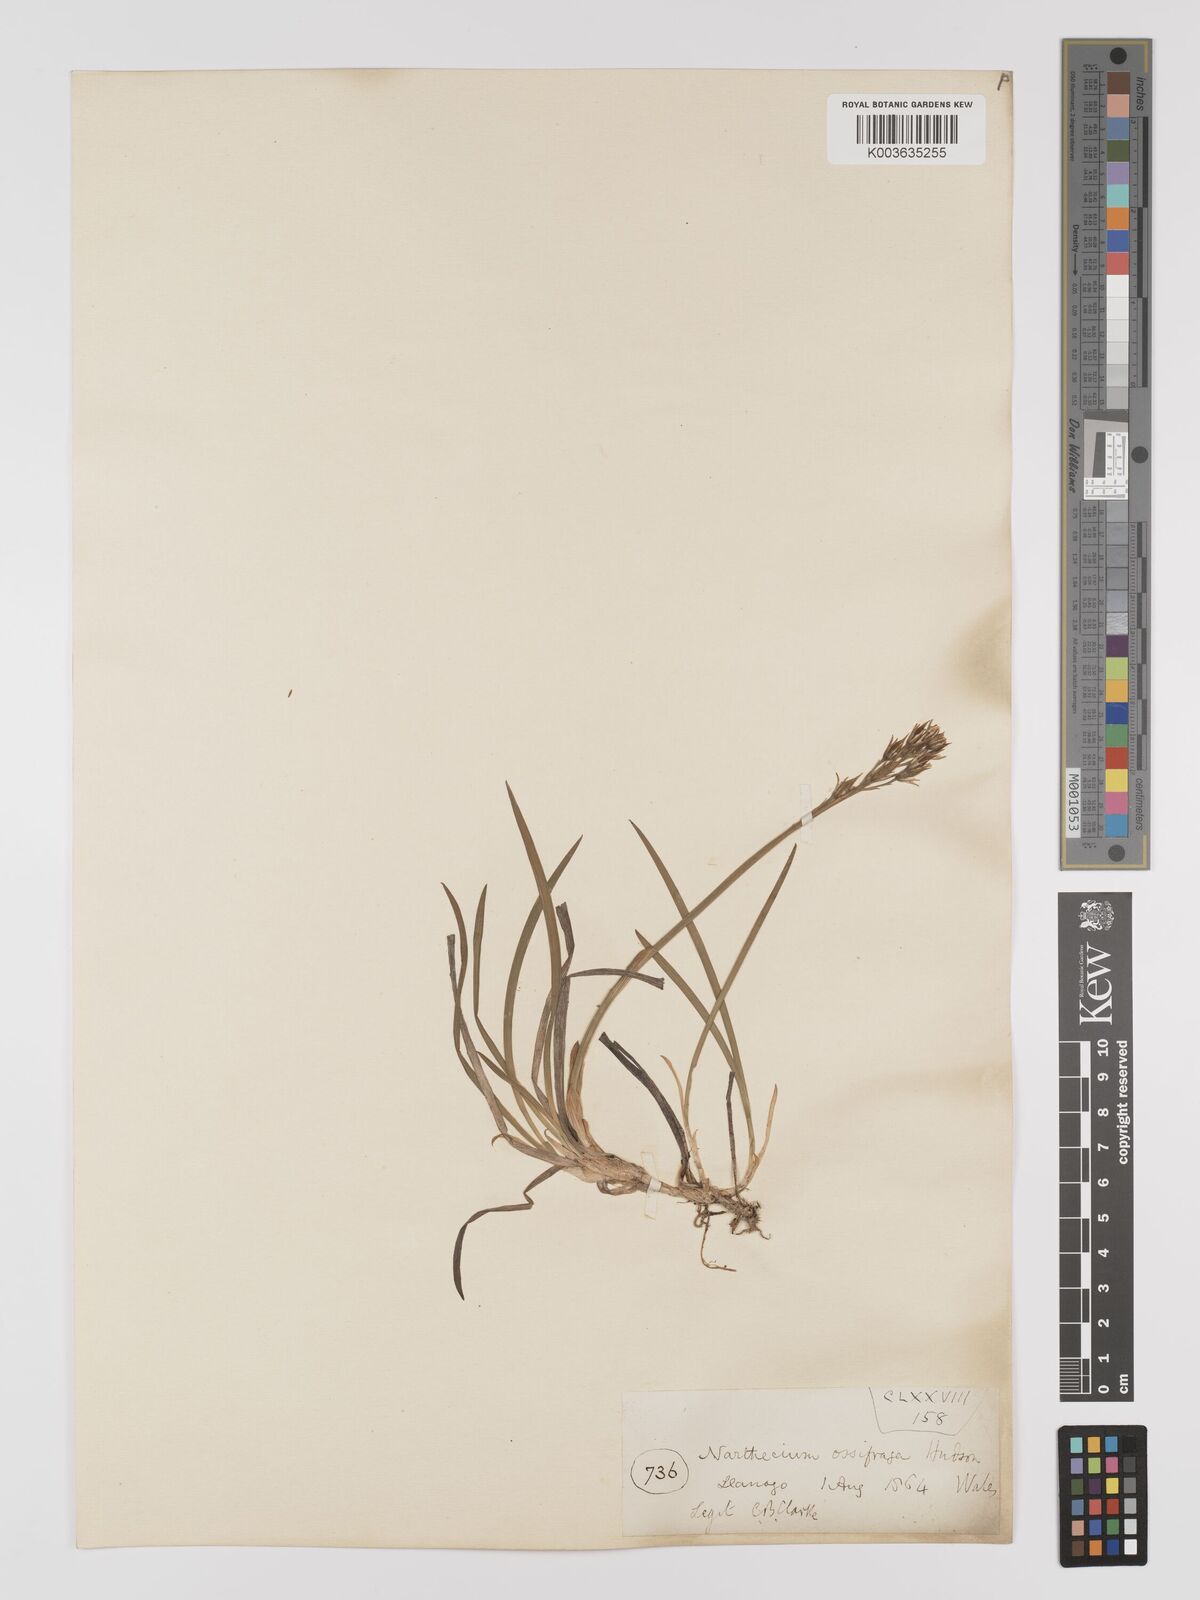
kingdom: Plantae
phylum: Tracheophyta
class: Liliopsida
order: Dioscoreales
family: Nartheciaceae
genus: Narthecium
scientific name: Narthecium
